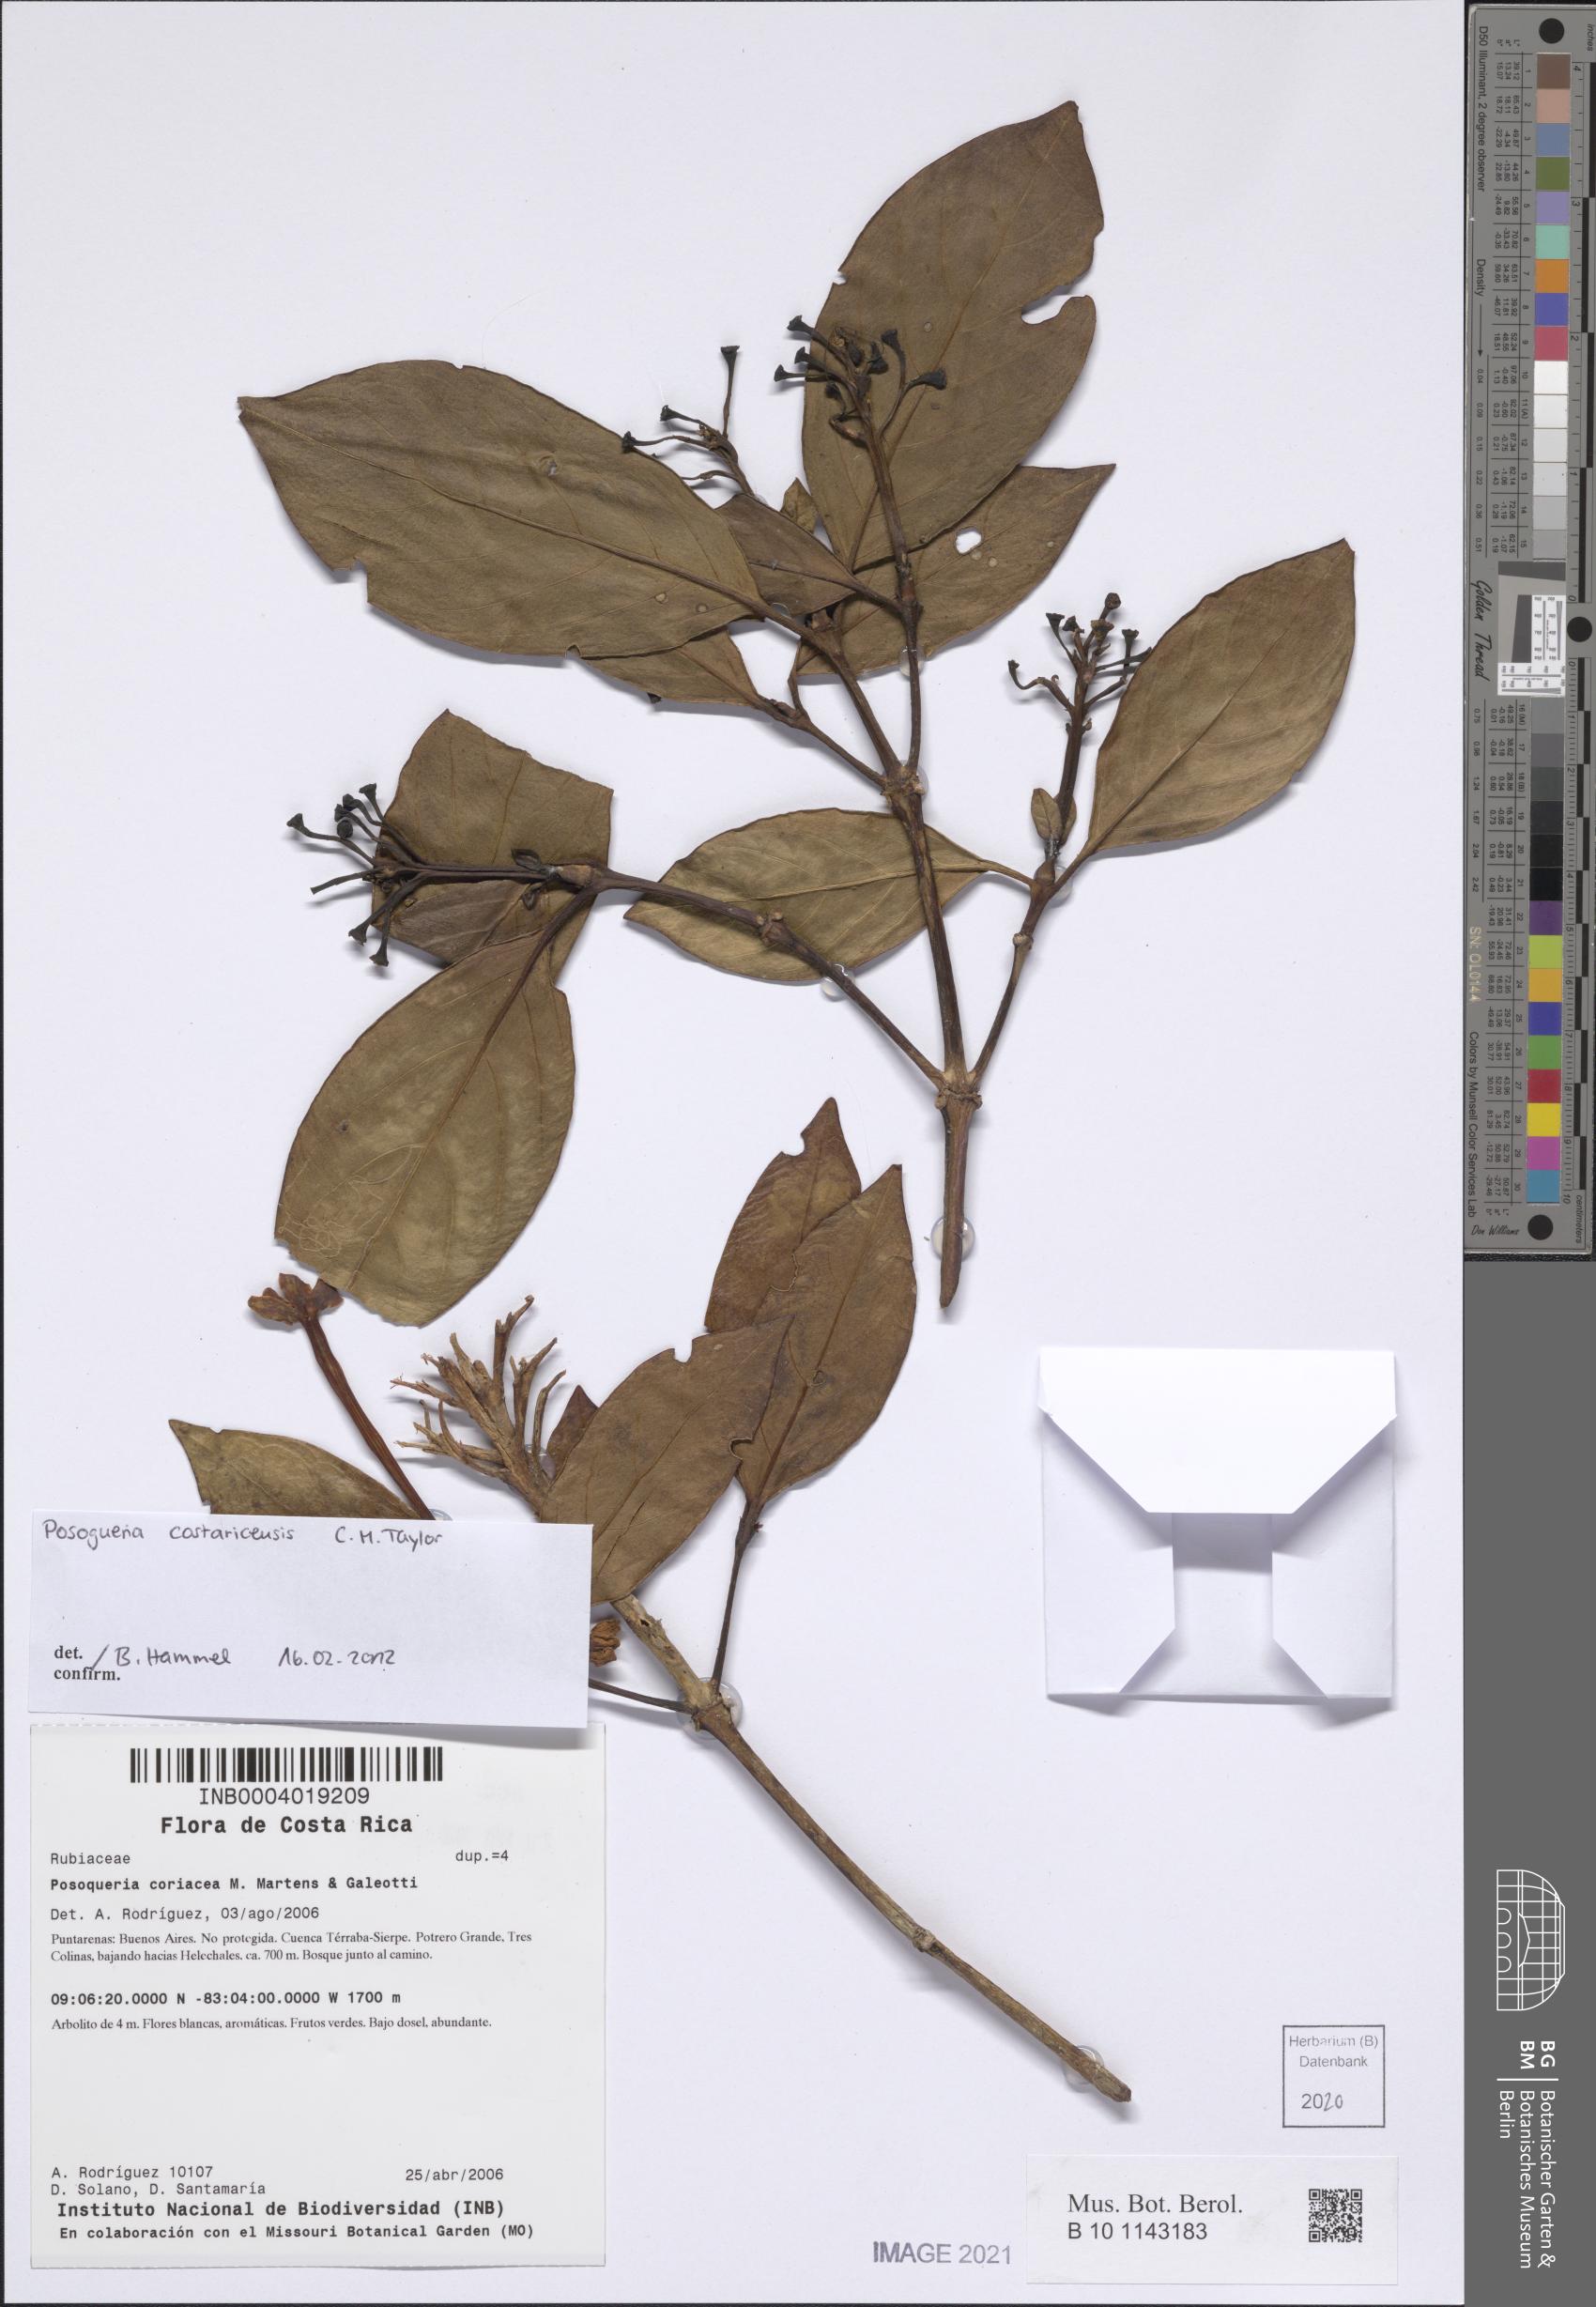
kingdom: Plantae
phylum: Tracheophyta
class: Magnoliopsida
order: Gentianales
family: Rubiaceae
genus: Posoqueria
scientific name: Posoqueria costaricensis
